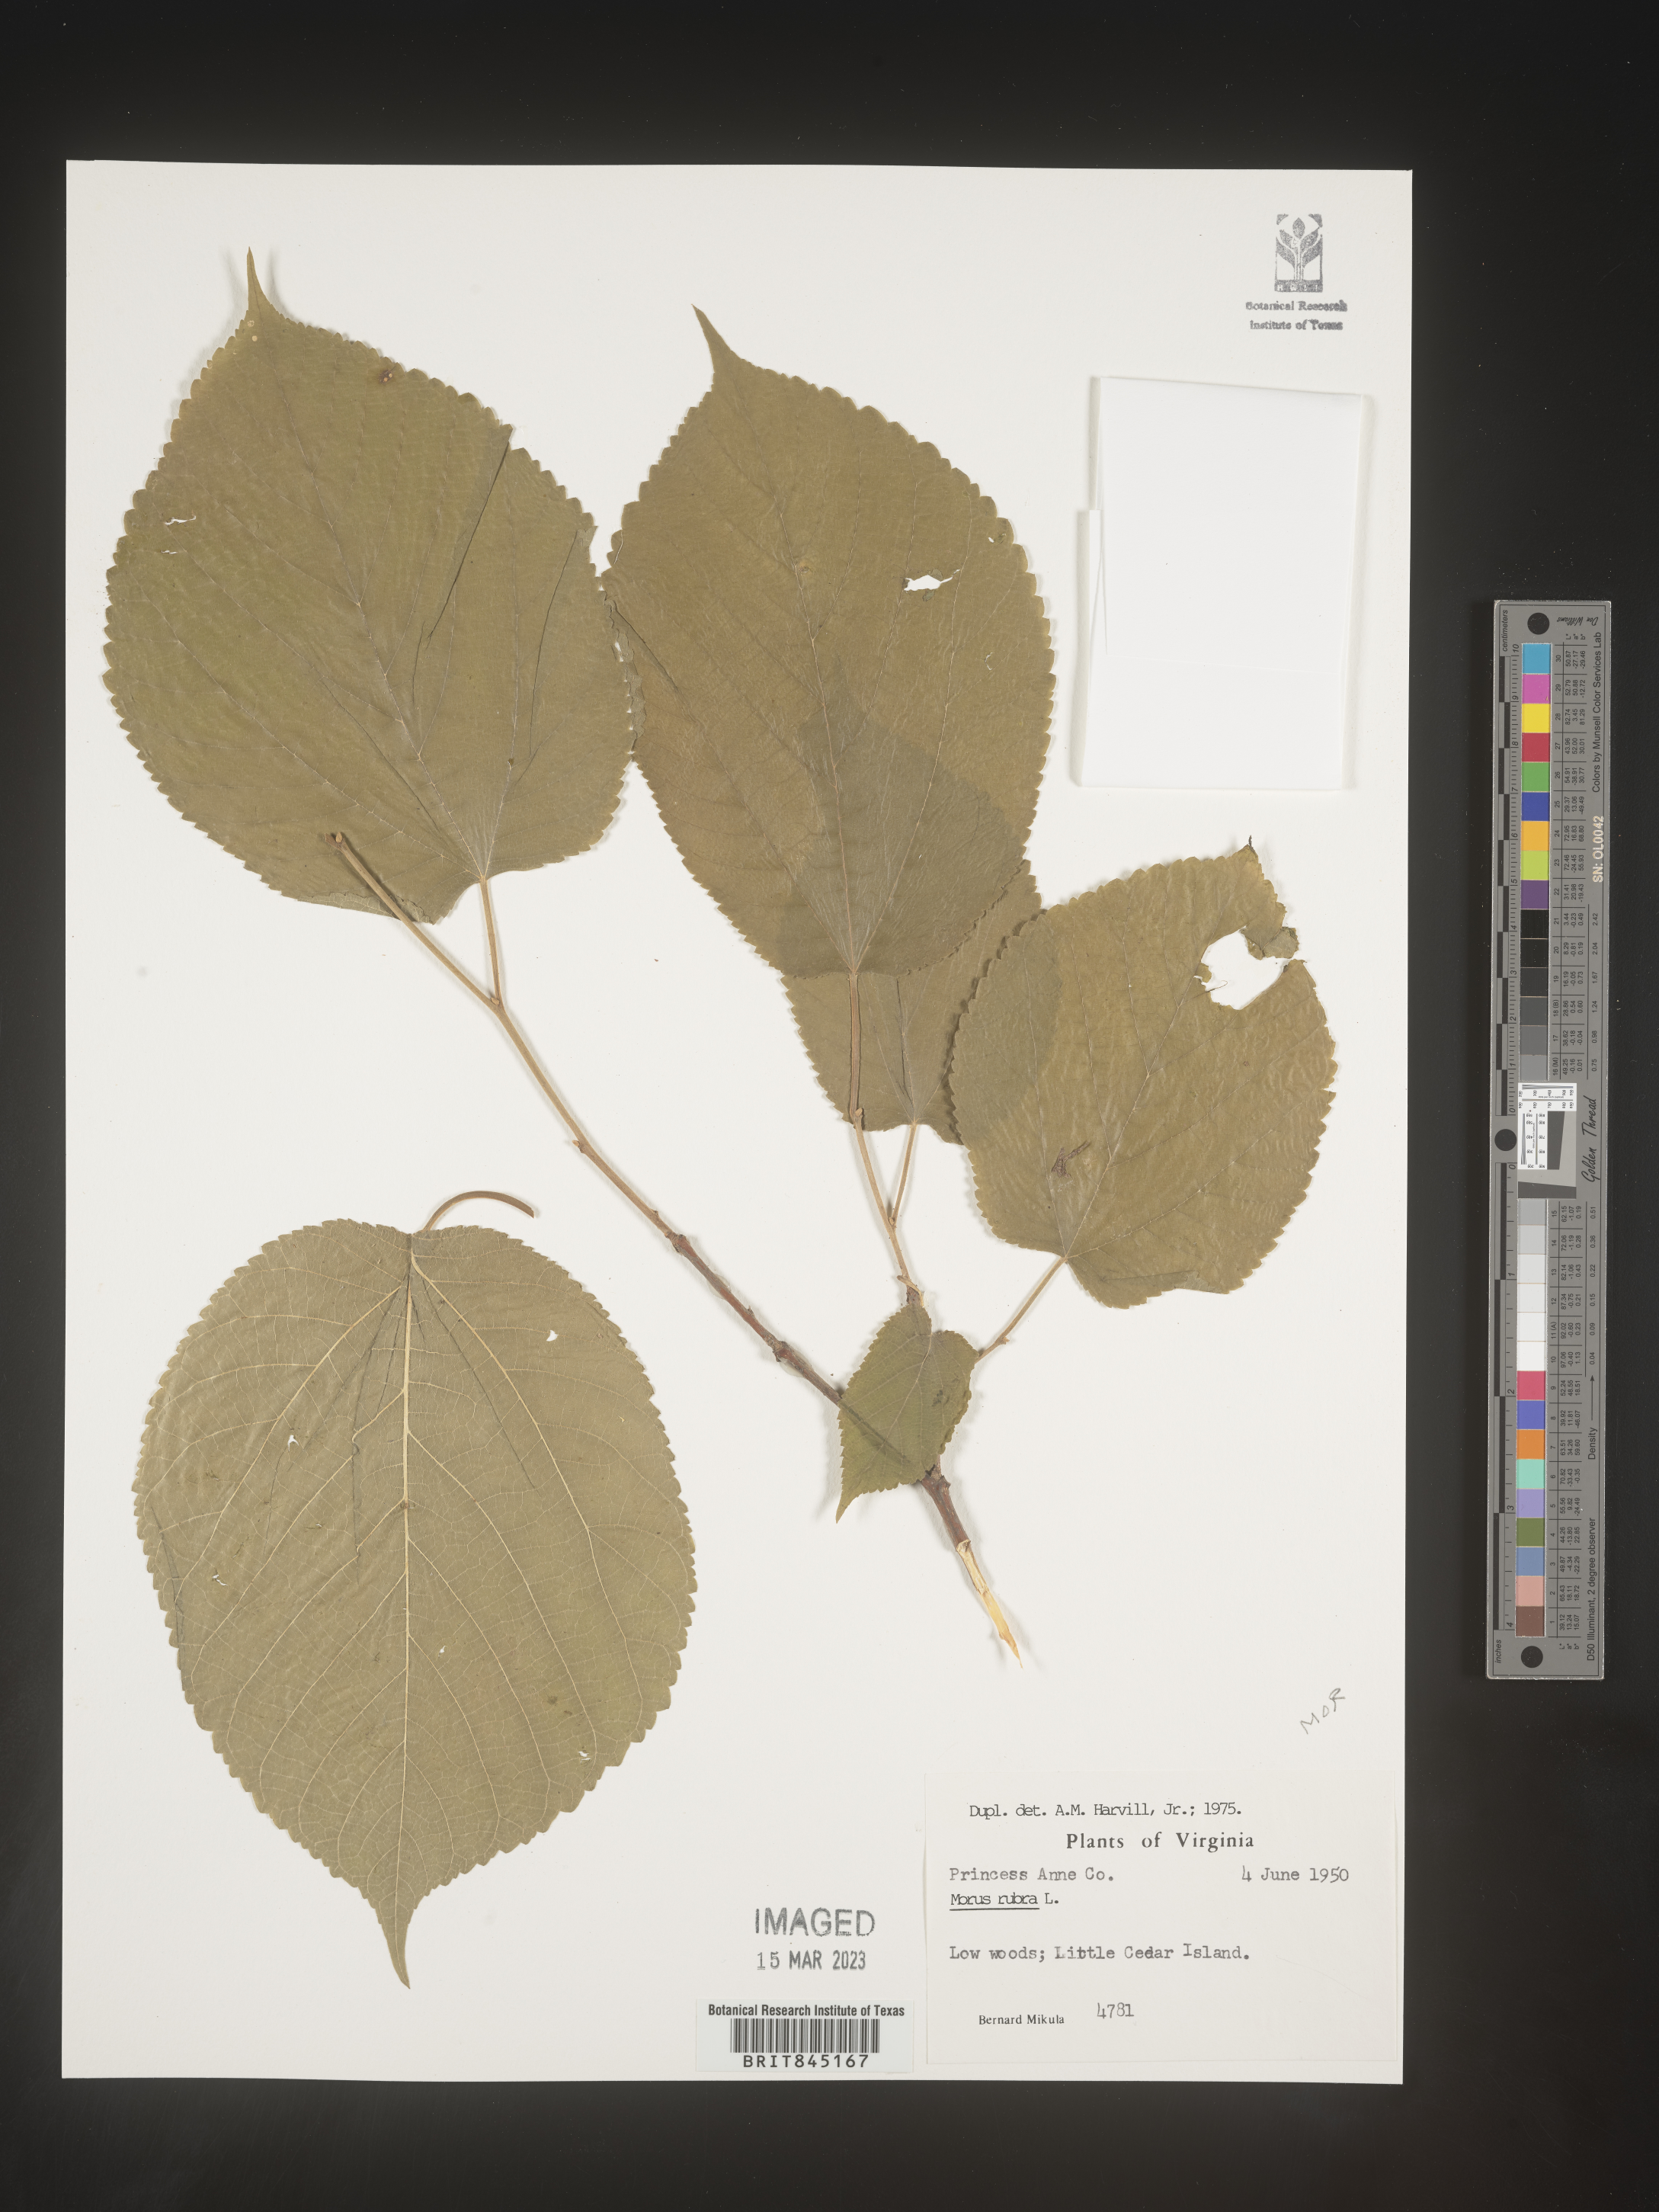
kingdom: Plantae
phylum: Tracheophyta
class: Magnoliopsida
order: Rosales
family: Moraceae
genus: Morus
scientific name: Morus rubra
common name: Red mulberry
